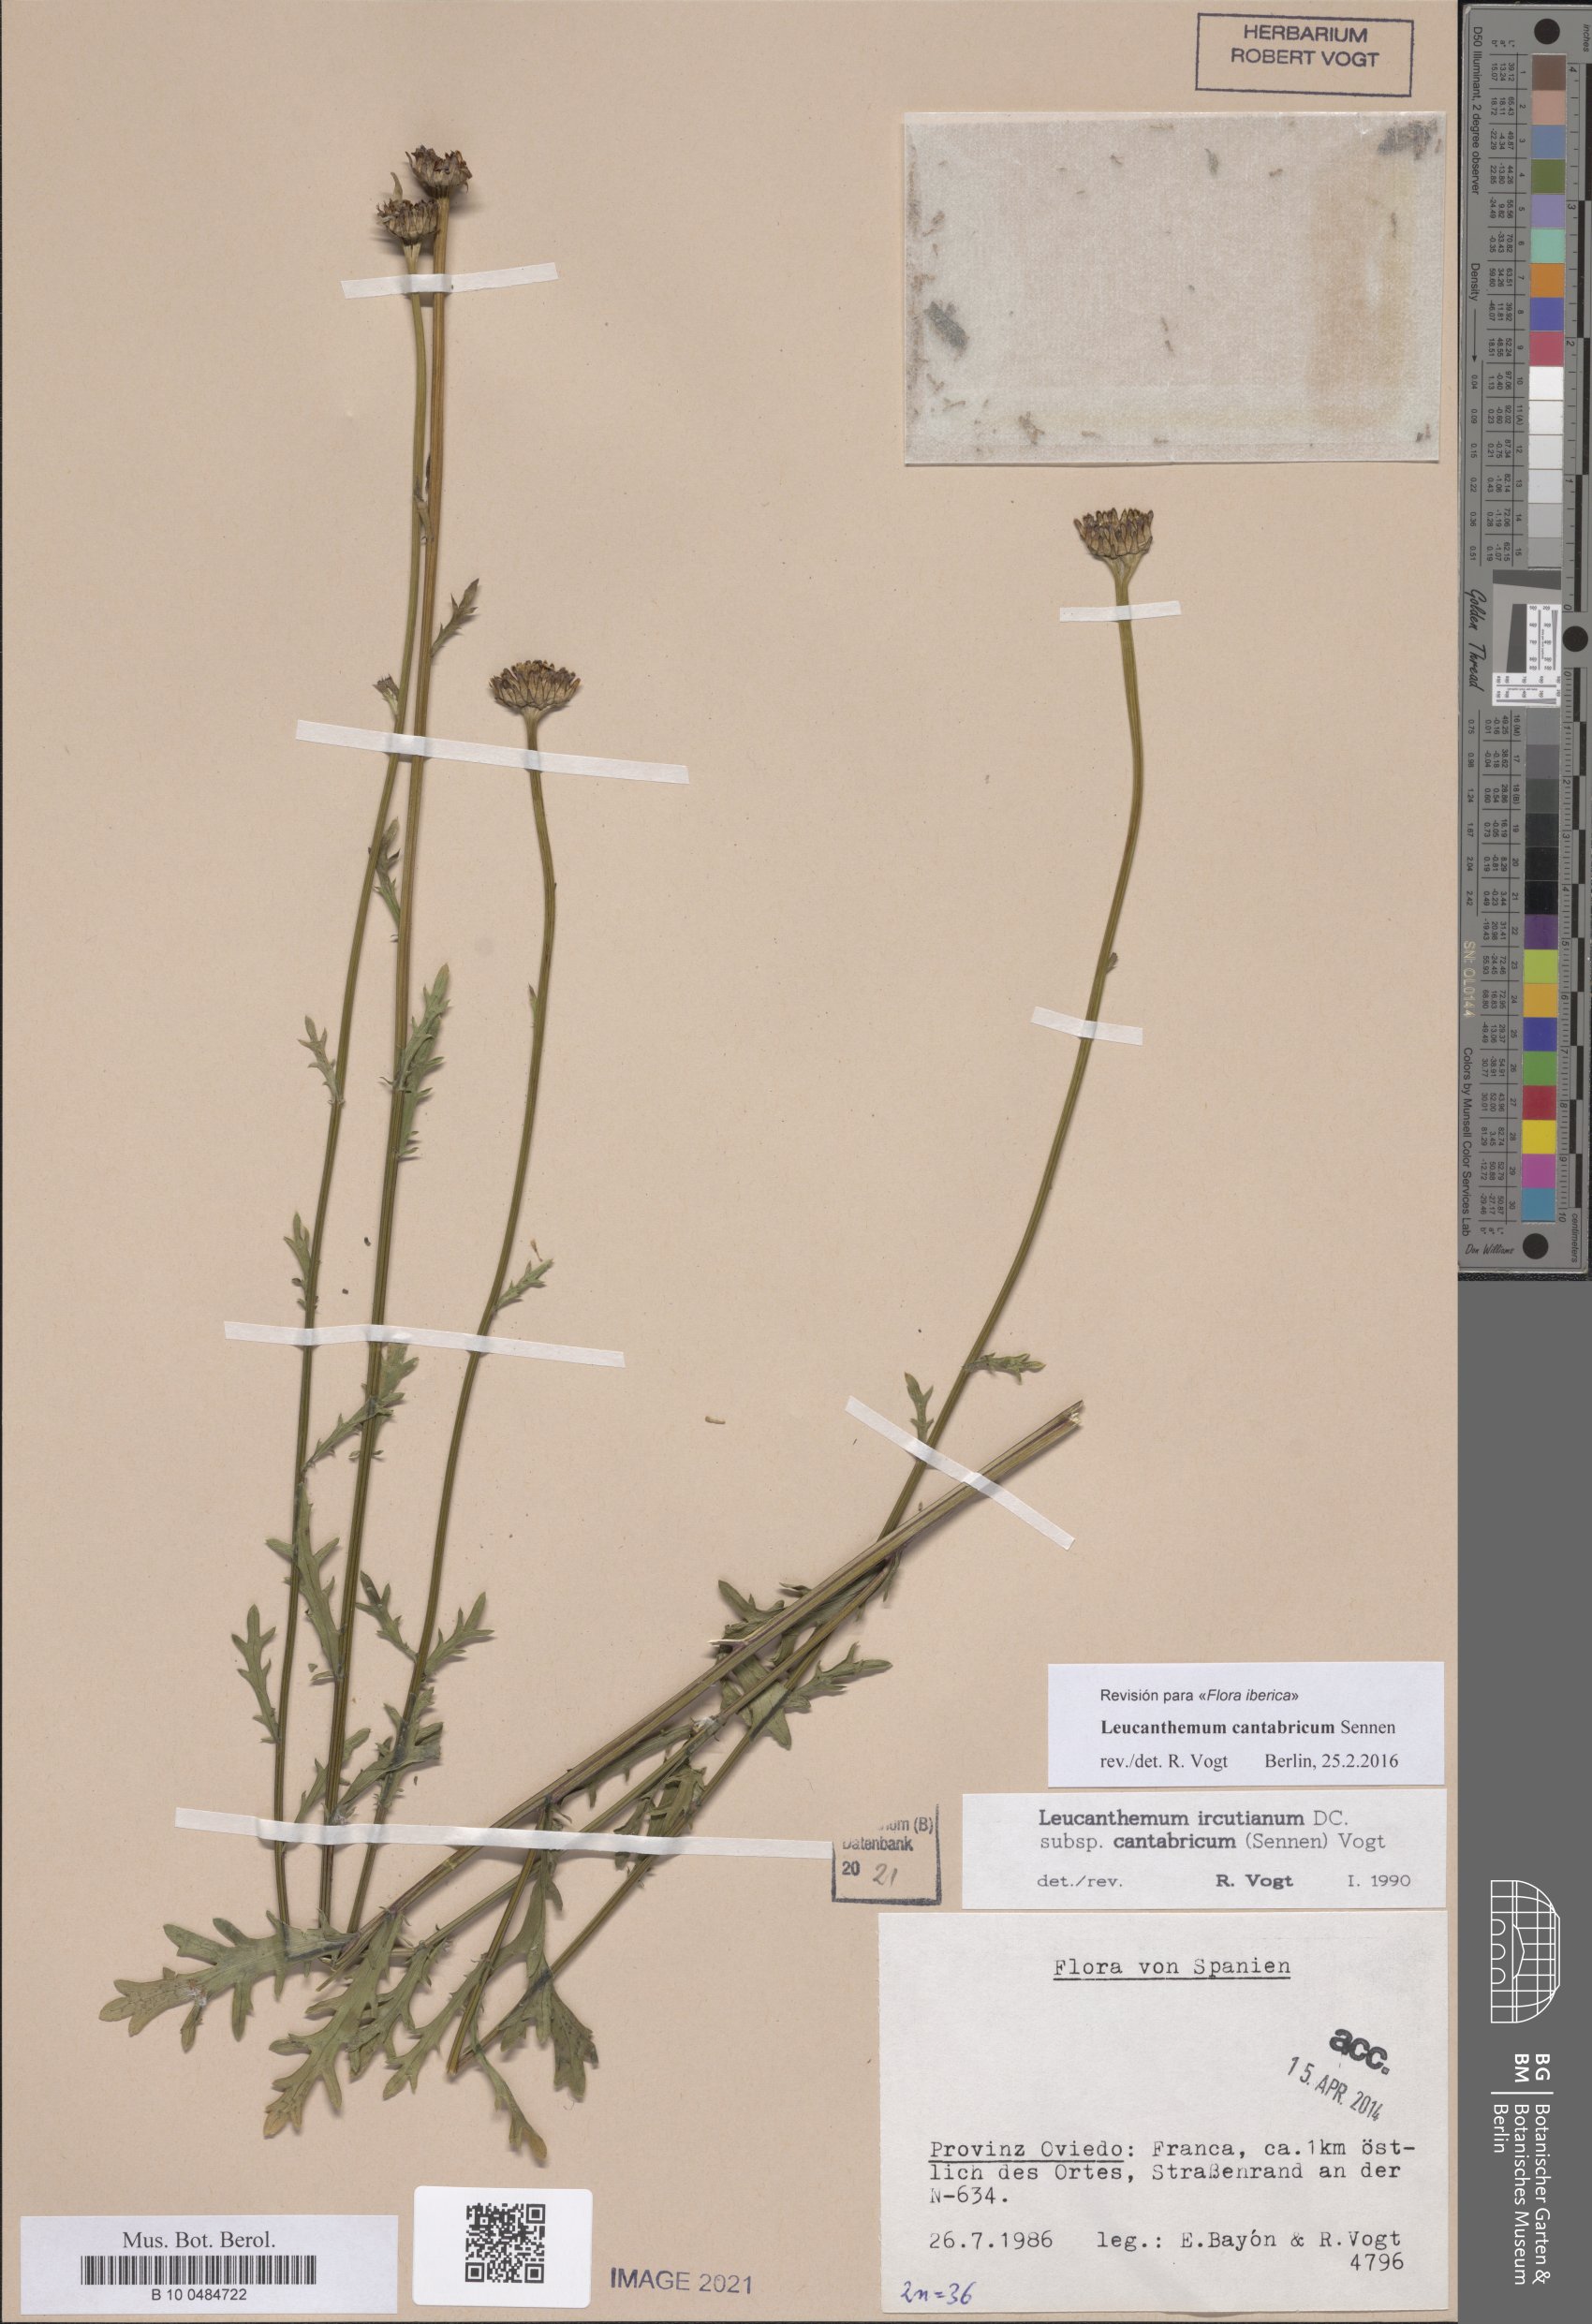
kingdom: Plantae
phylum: Tracheophyta
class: Magnoliopsida
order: Asterales
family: Asteraceae
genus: Leucanthemum
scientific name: Leucanthemum cantabricum
